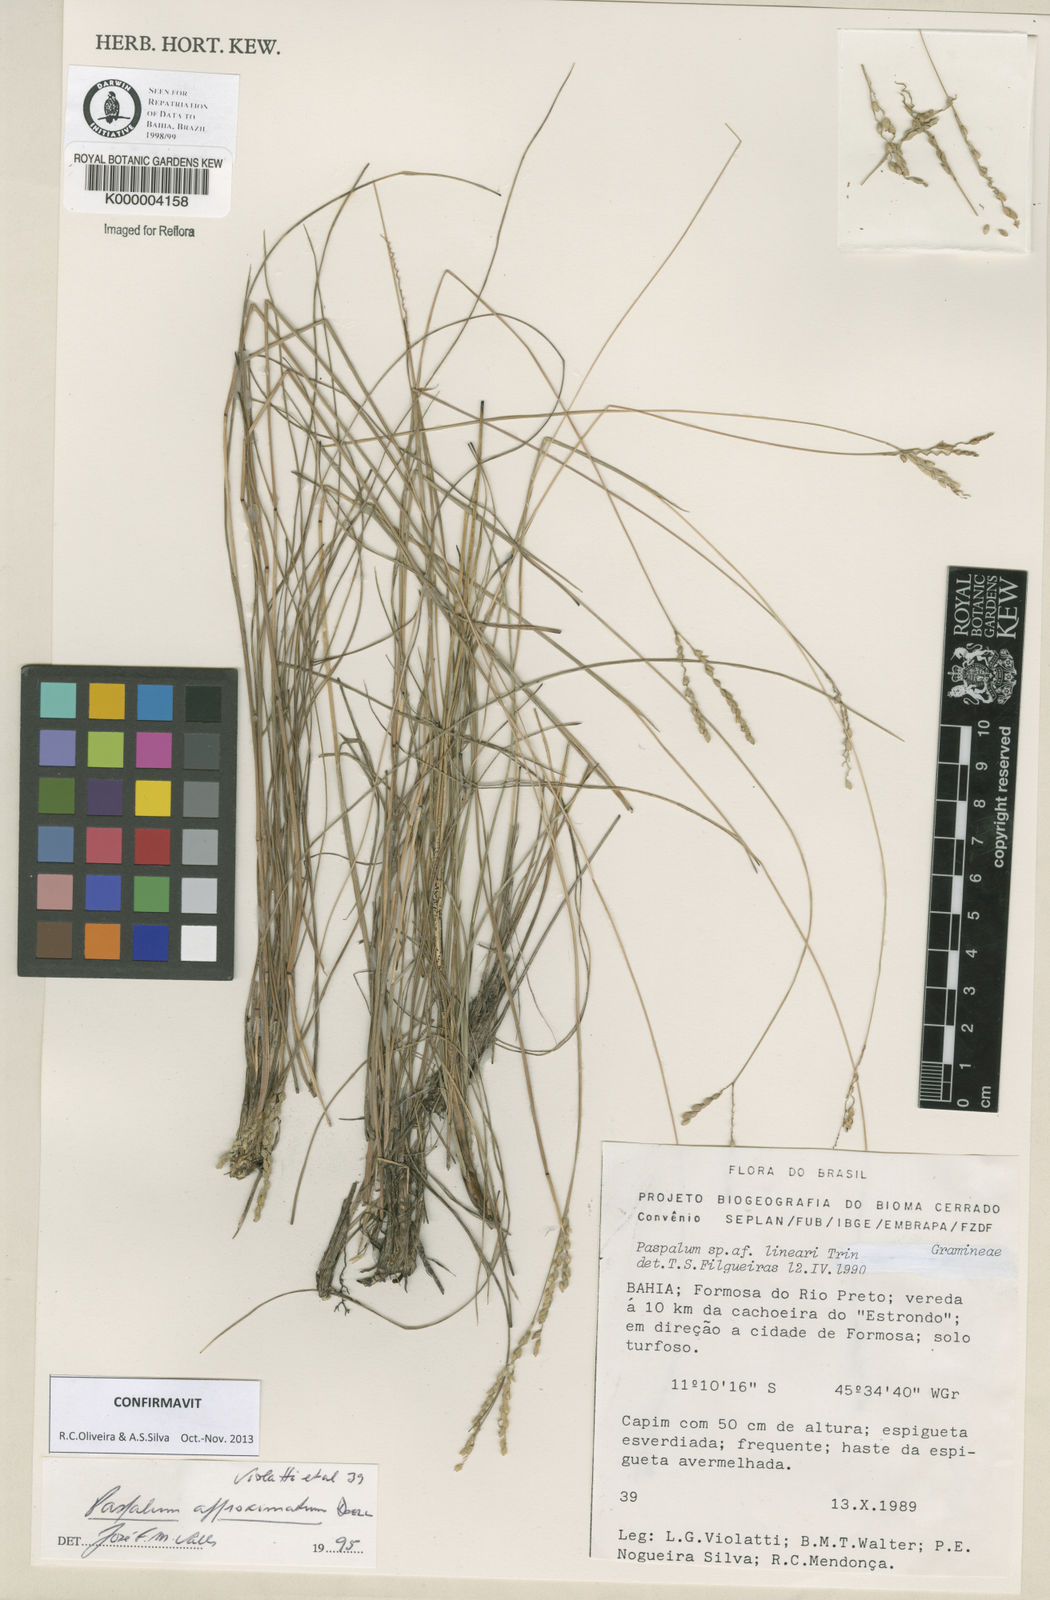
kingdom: Plantae
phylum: Tracheophyta
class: Liliopsida
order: Poales
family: Poaceae
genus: Paspalum
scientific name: Paspalum
